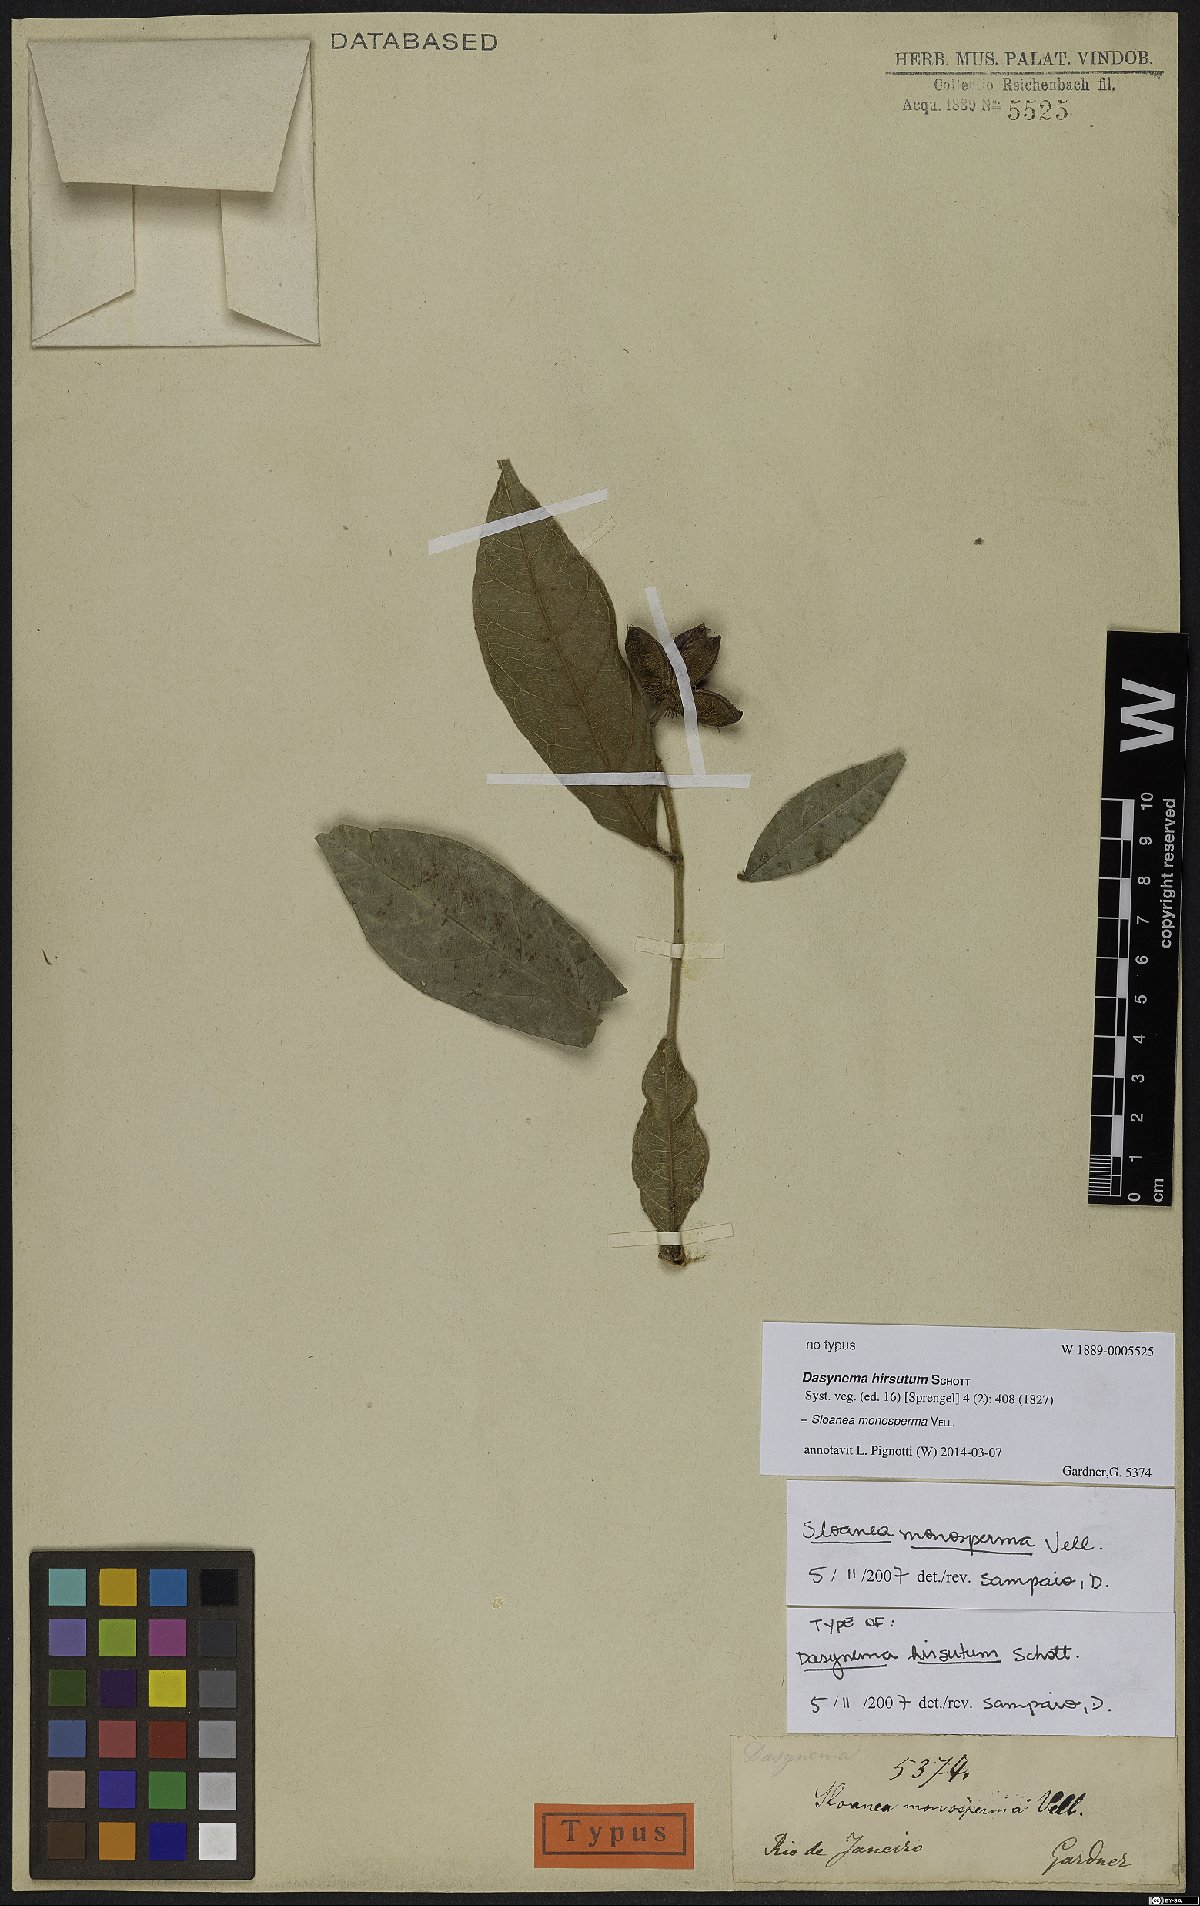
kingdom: Plantae
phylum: Tracheophyta
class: Magnoliopsida
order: Oxalidales
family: Elaeocarpaceae
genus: Sloanea
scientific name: Sloanea hirsuta
